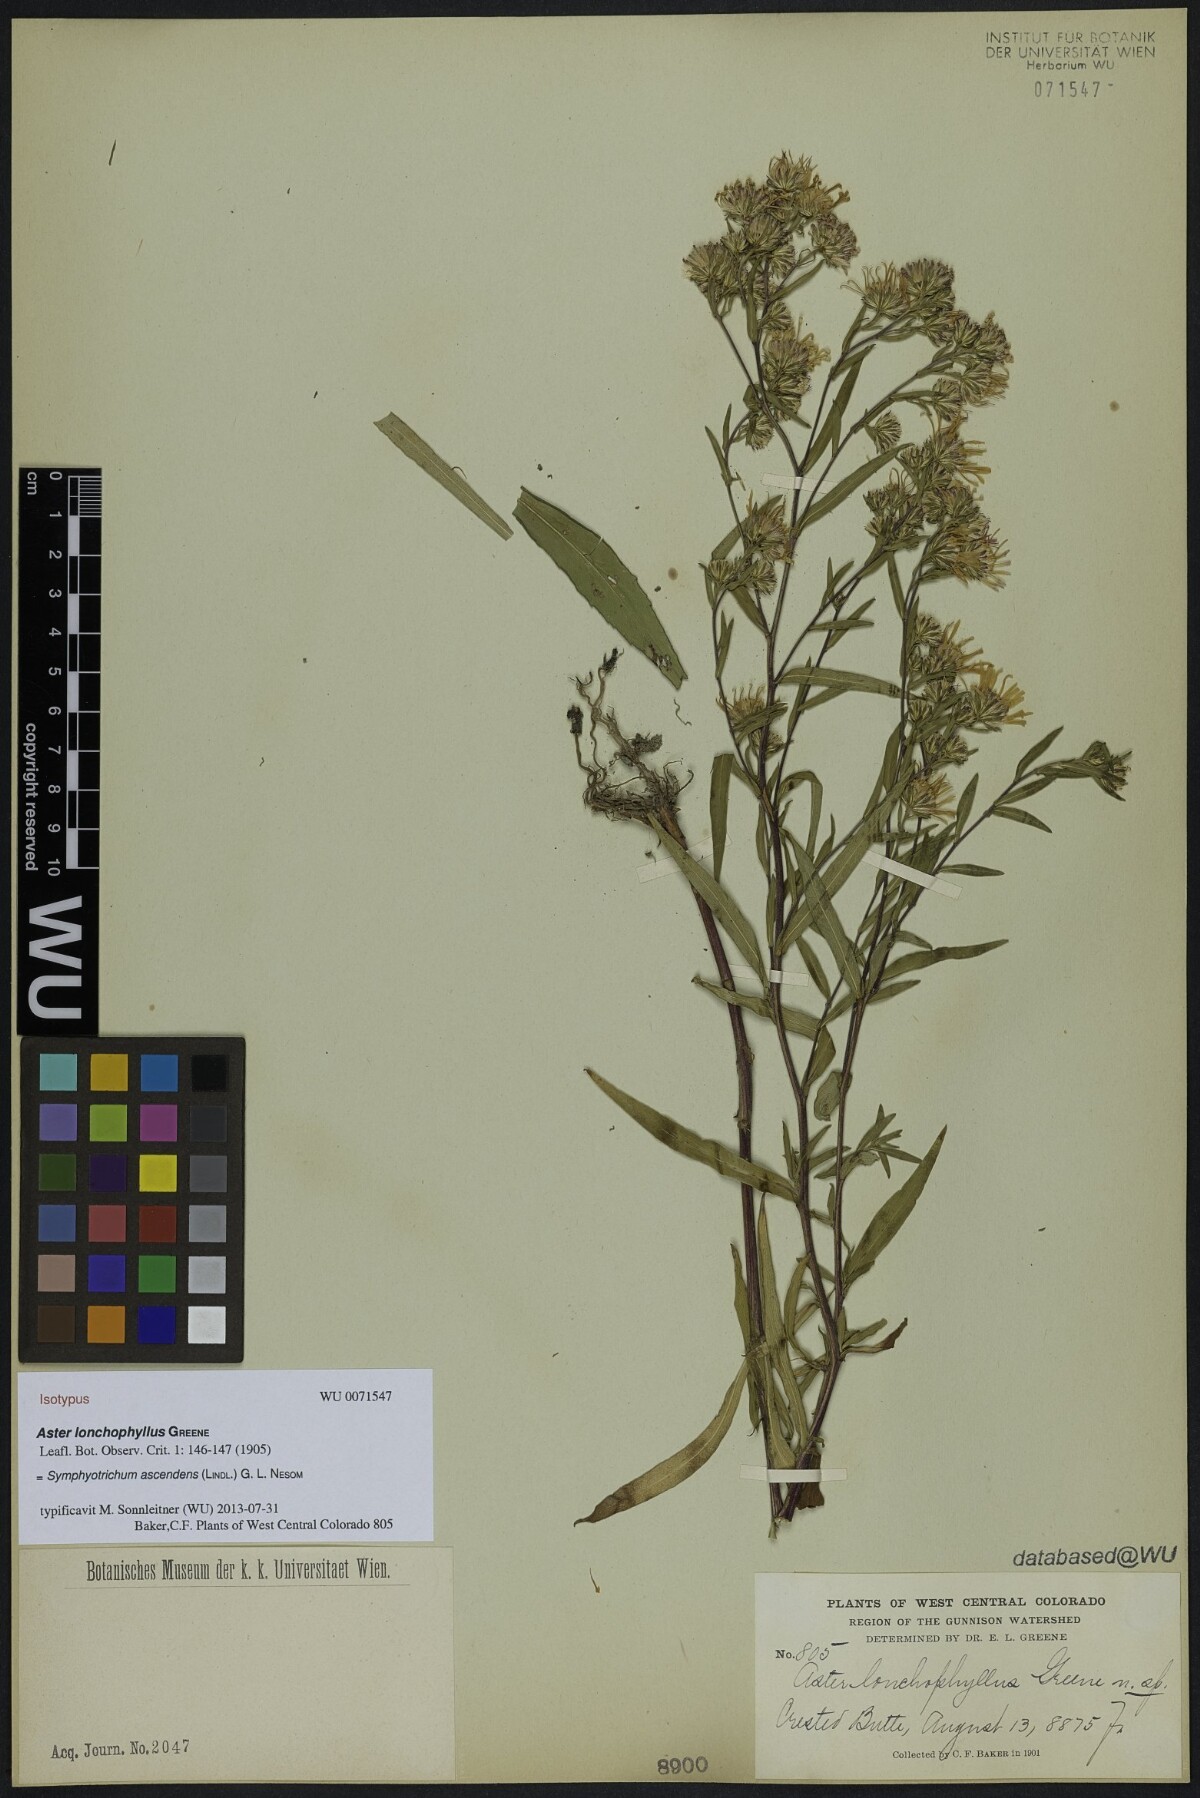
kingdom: Plantae
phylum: Tracheophyta
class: Magnoliopsida
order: Asterales
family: Asteraceae
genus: Symphyotrichum
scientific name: Symphyotrichum ascendens
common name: Intermountain aster
